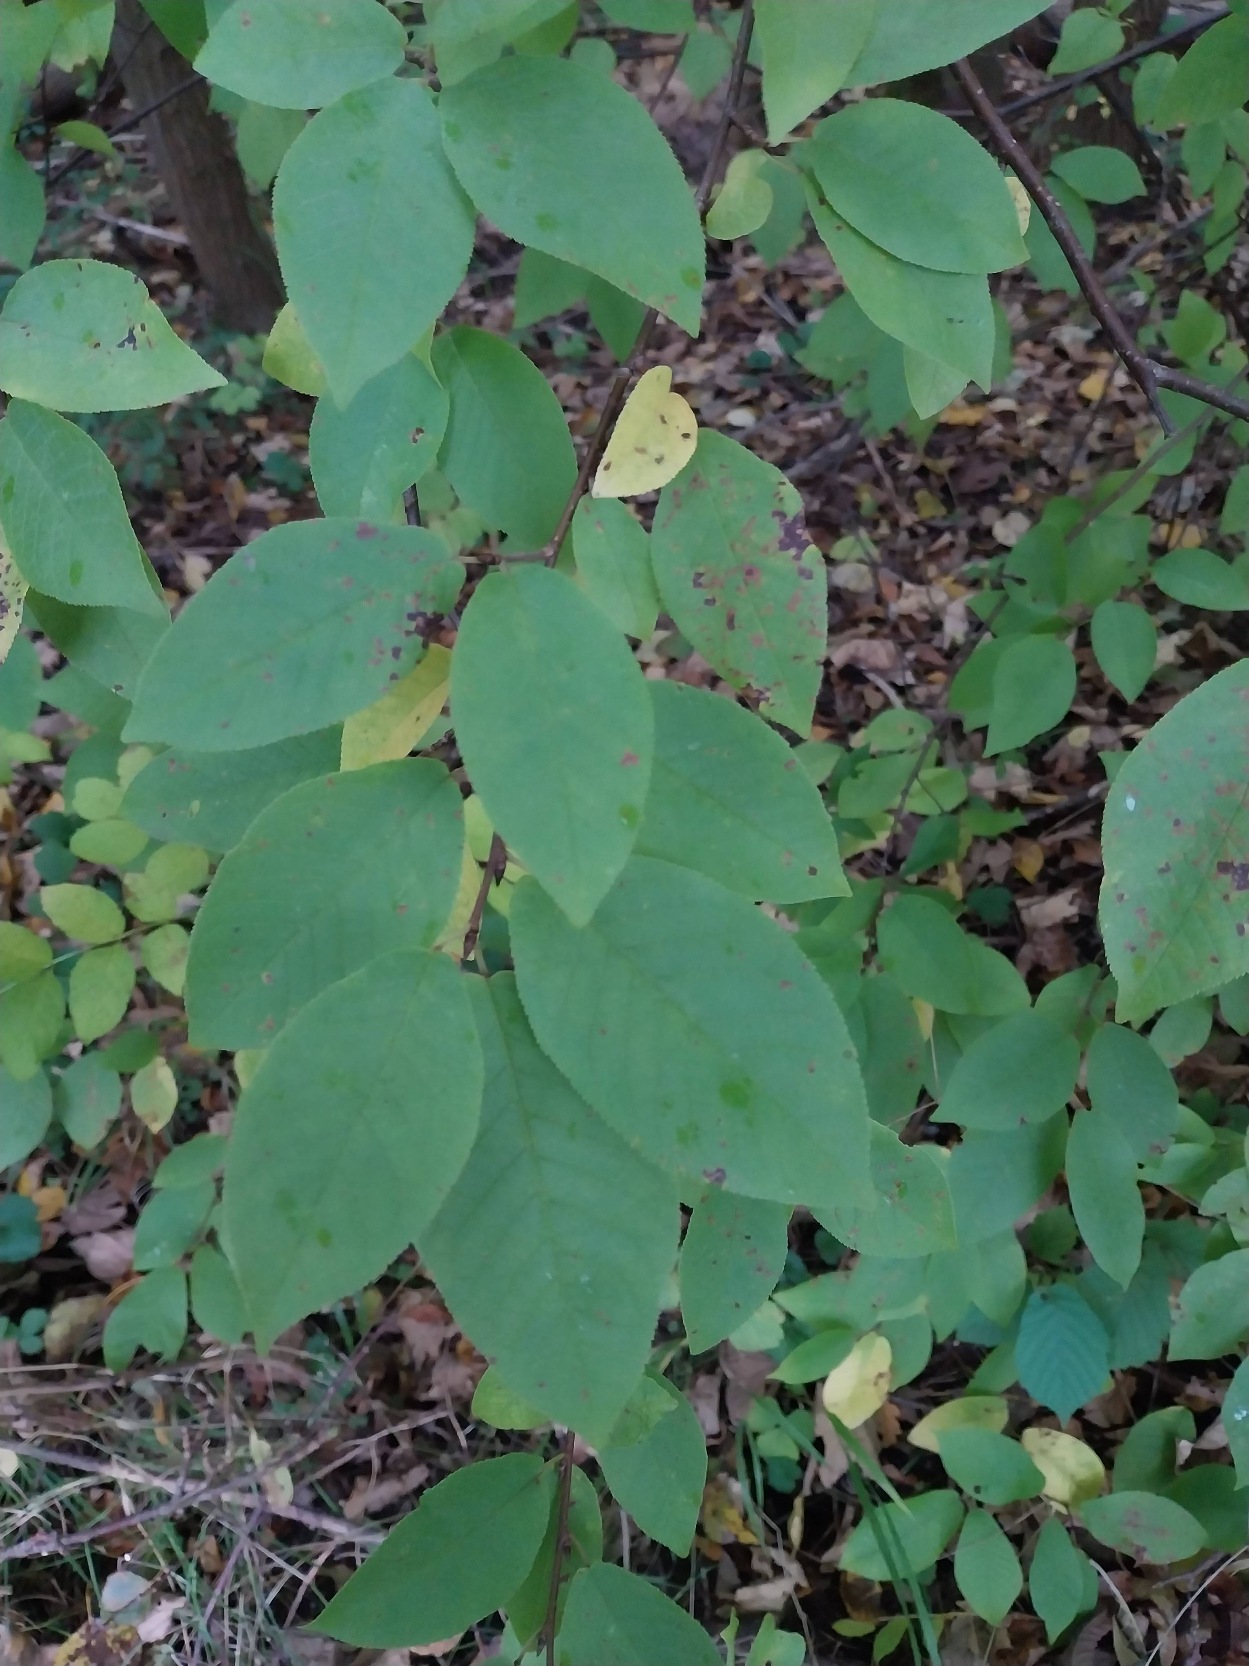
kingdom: Plantae
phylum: Tracheophyta
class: Magnoliopsida
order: Rosales
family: Rosaceae
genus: Prunus
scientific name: Prunus padus
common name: Almindelig hæg
